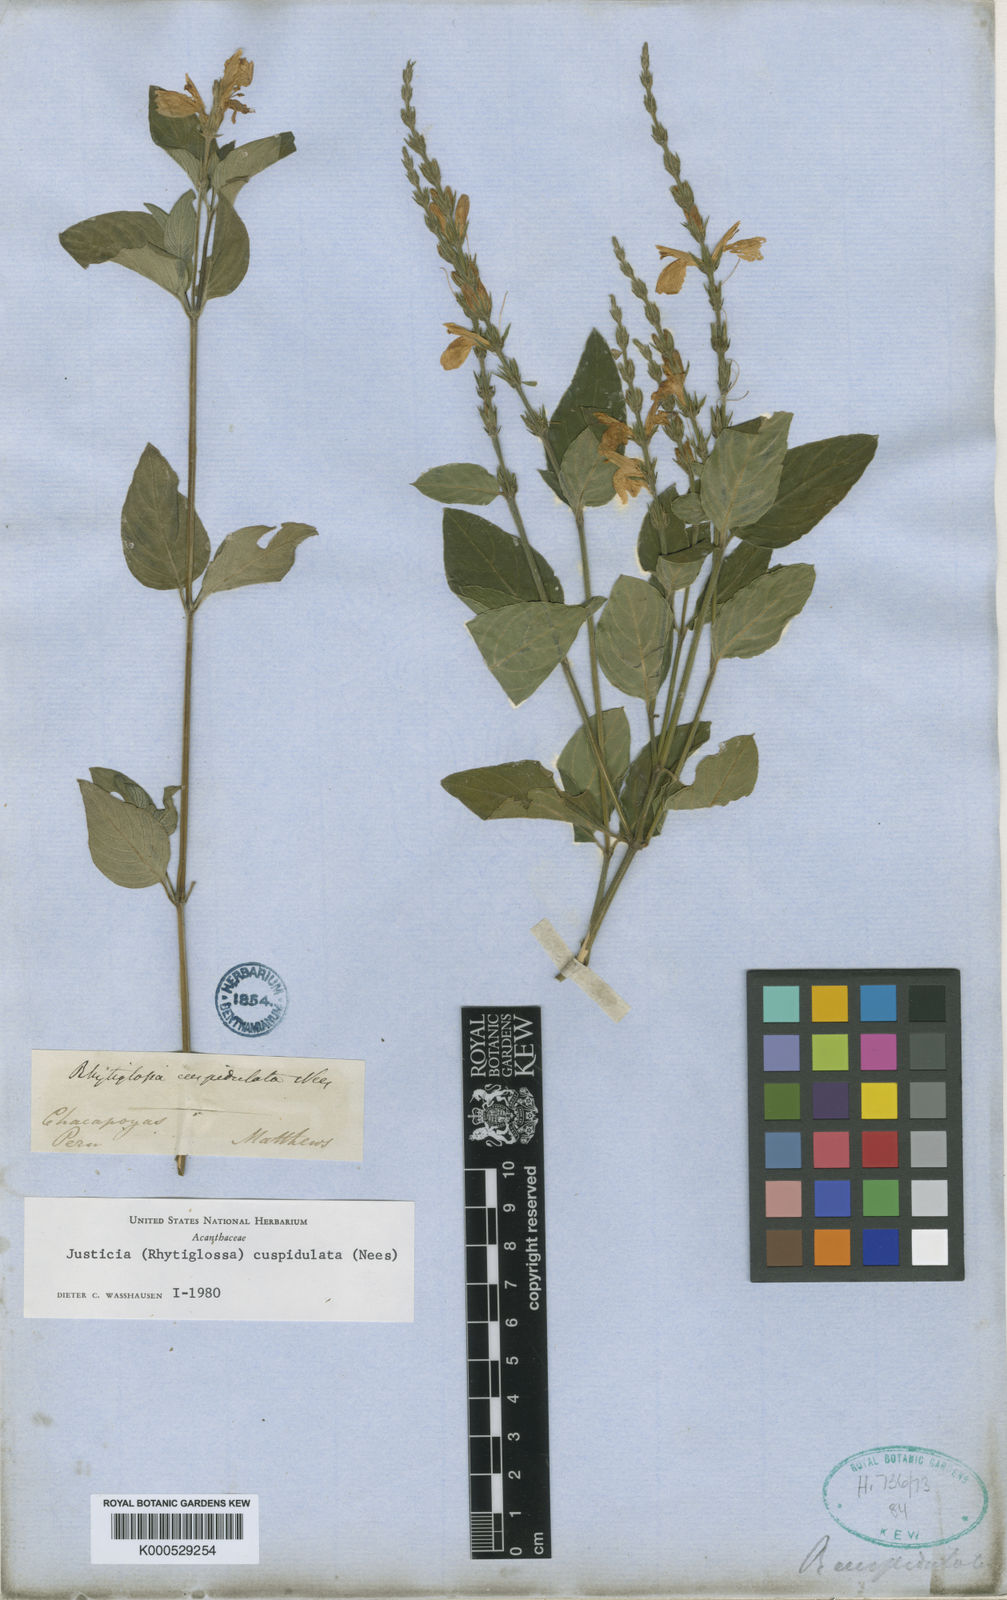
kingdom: Plantae
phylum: Tracheophyta
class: Magnoliopsida
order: Lamiales
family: Acanthaceae
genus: Justicia
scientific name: Justicia cuspidulata
